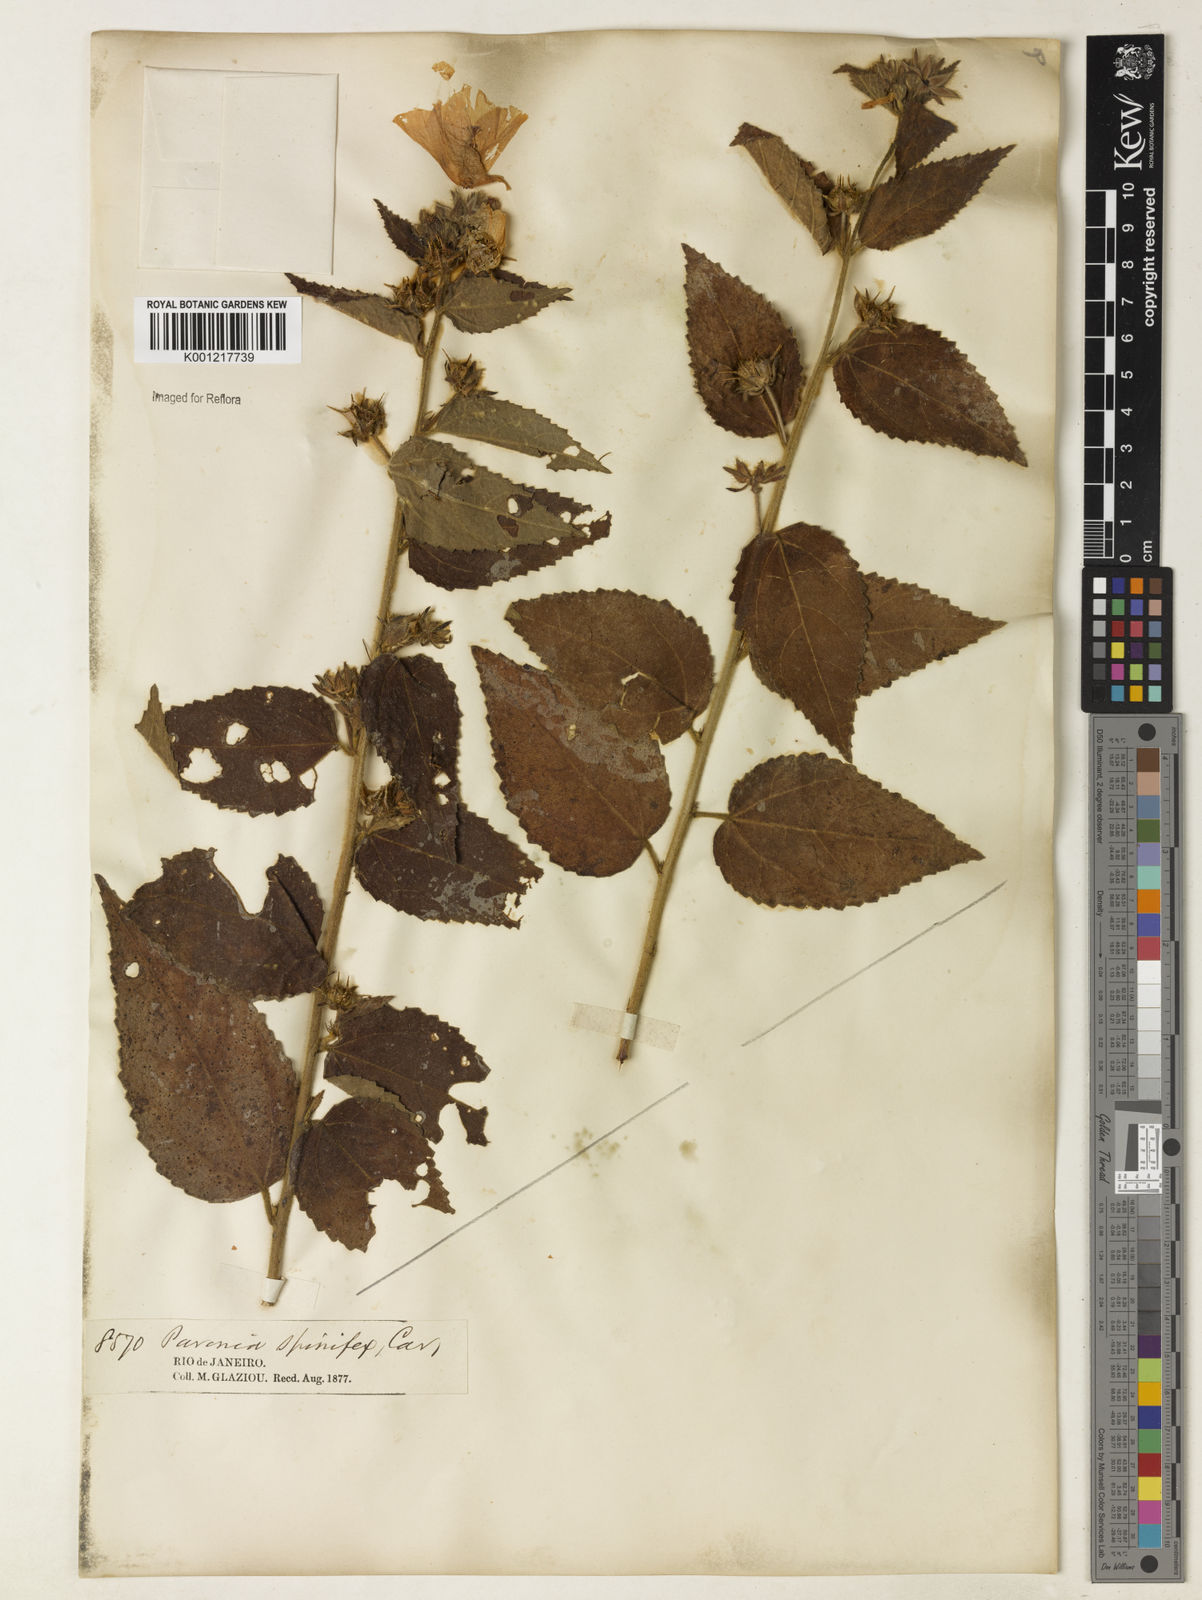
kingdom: Plantae
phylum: Tracheophyta
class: Magnoliopsida
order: Malvales
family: Malvaceae
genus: Pavonia
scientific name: Pavonia spinifex
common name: Ginger bush
